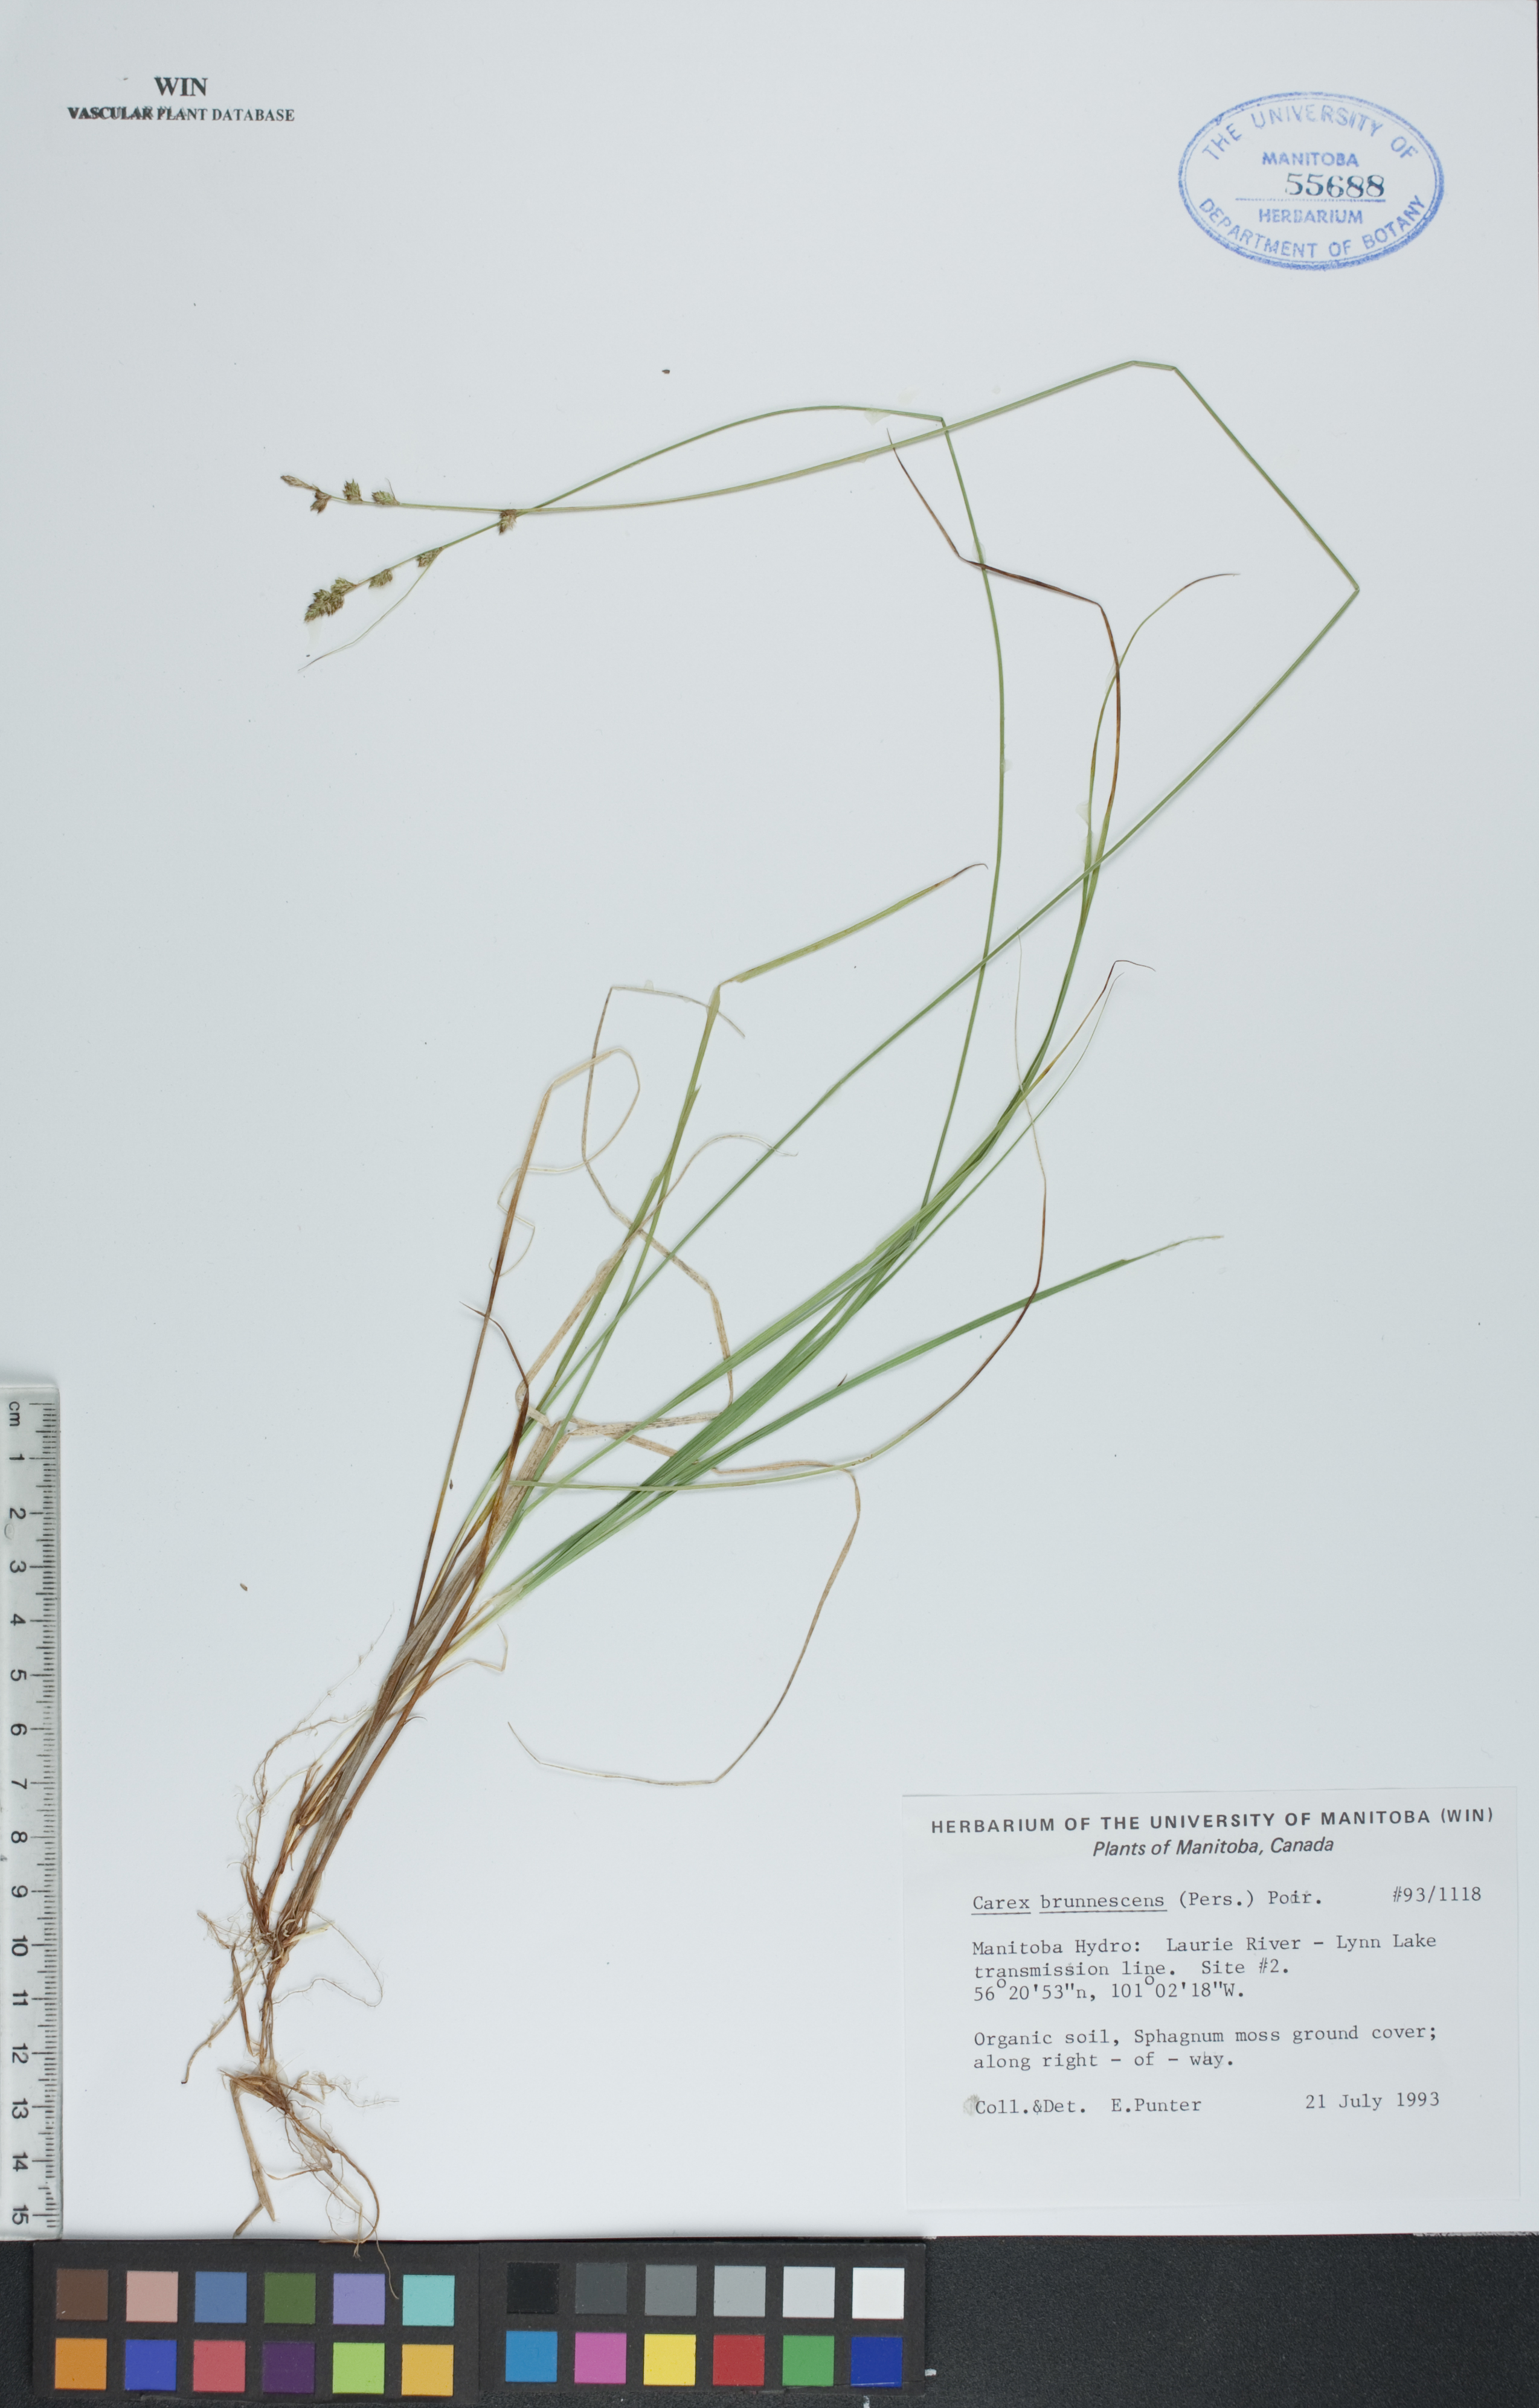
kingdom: Plantae
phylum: Tracheophyta
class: Liliopsida
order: Poales
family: Cyperaceae
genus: Carex
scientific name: Carex brunnescens
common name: Brown sedge
